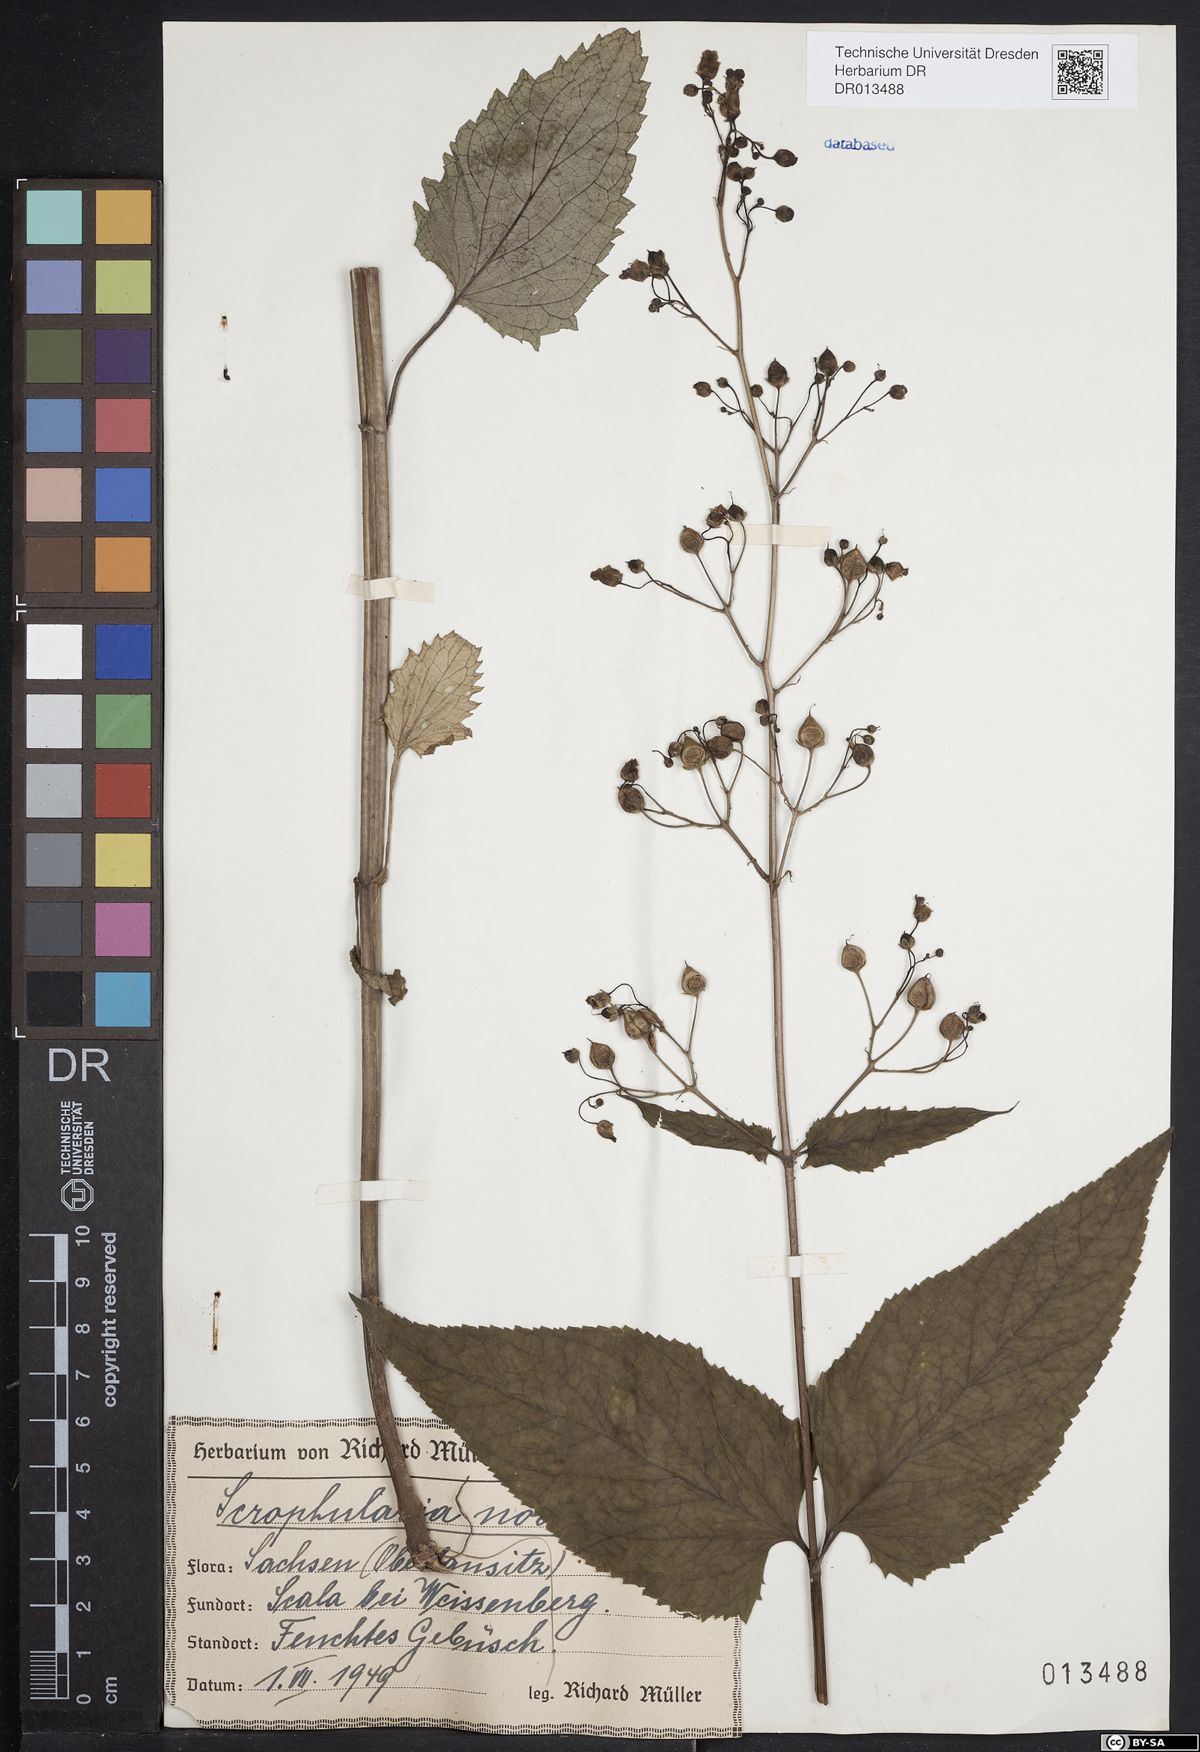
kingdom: Plantae
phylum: Tracheophyta
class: Magnoliopsida
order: Lamiales
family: Scrophulariaceae
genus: Scrophularia
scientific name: Scrophularia nodosa
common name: Common figwort
